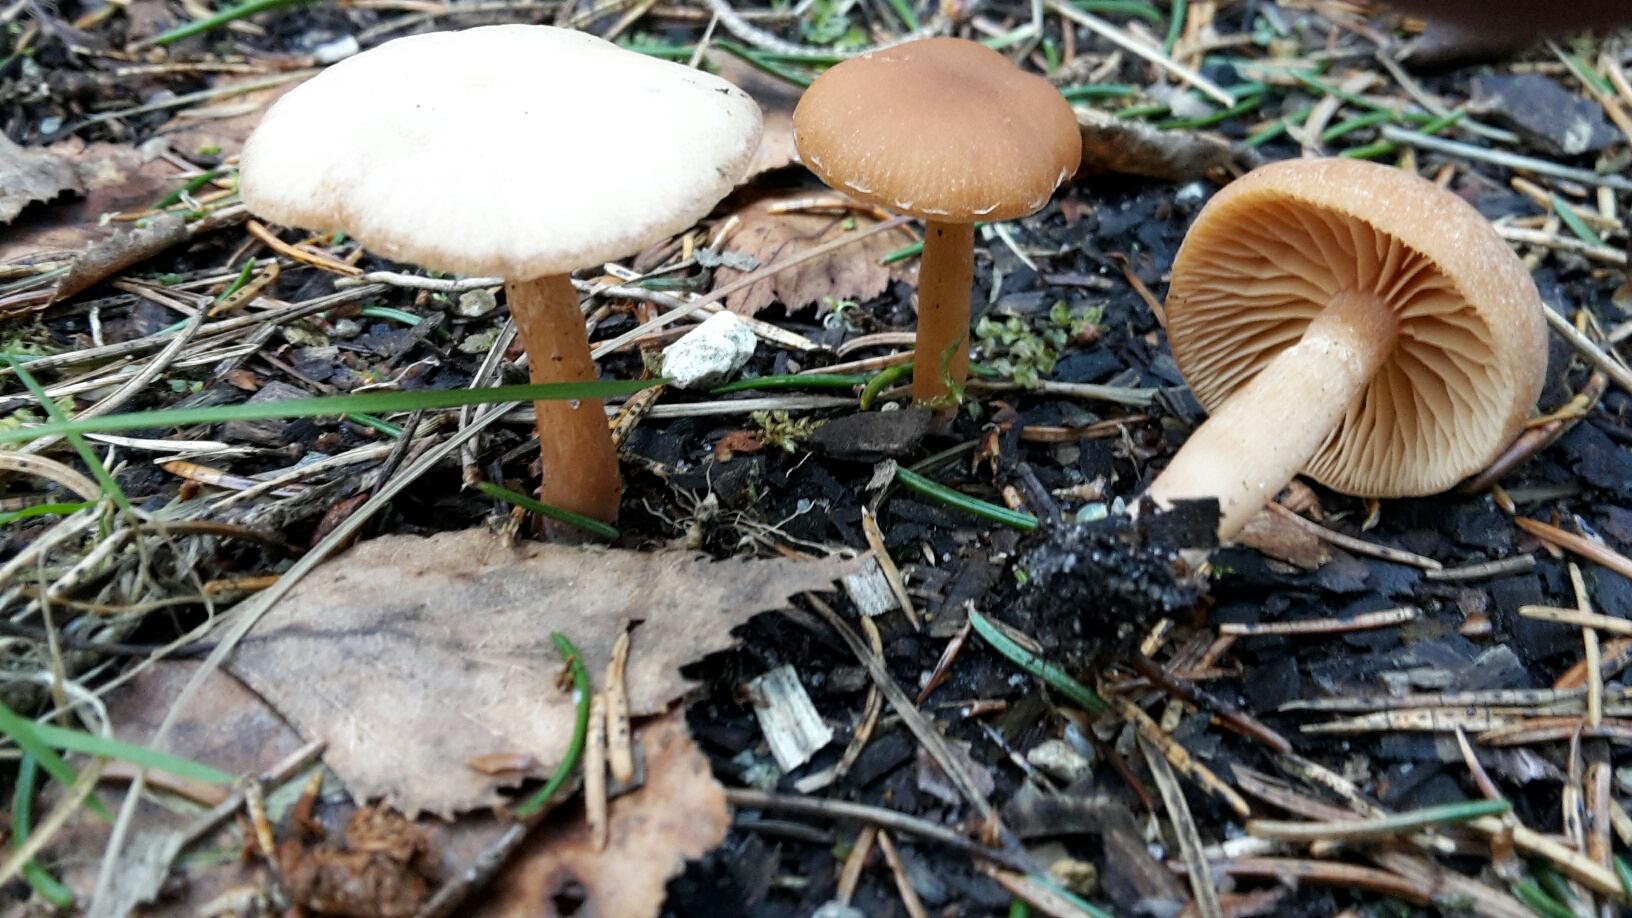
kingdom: Fungi
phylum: Basidiomycota
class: Agaricomycetes
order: Agaricales
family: Tubariaceae
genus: Tubaria
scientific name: Tubaria furfuracea
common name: kliddet fnughat
